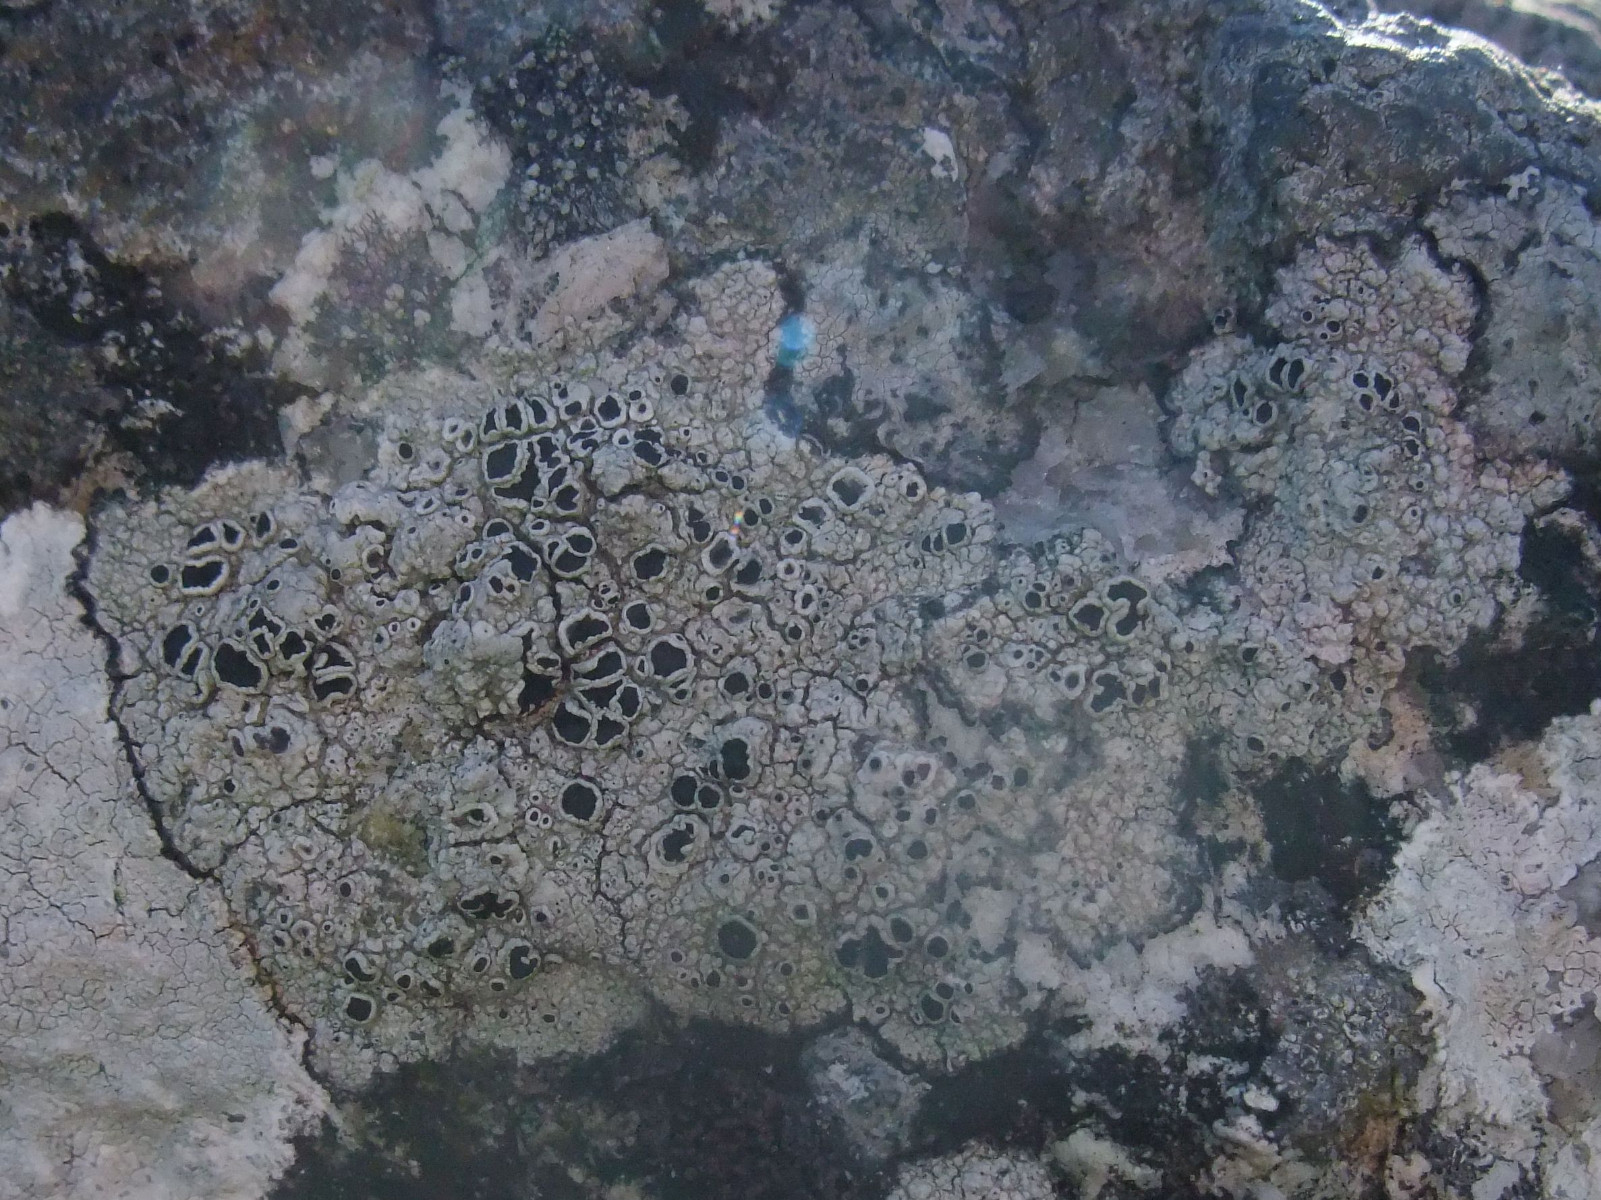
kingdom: Fungi
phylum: Ascomycota
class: Lecanoromycetes
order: Lecanorales
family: Tephromelataceae
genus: Tephromela
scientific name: Tephromela atra
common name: sortfrugtet kantskivelav
